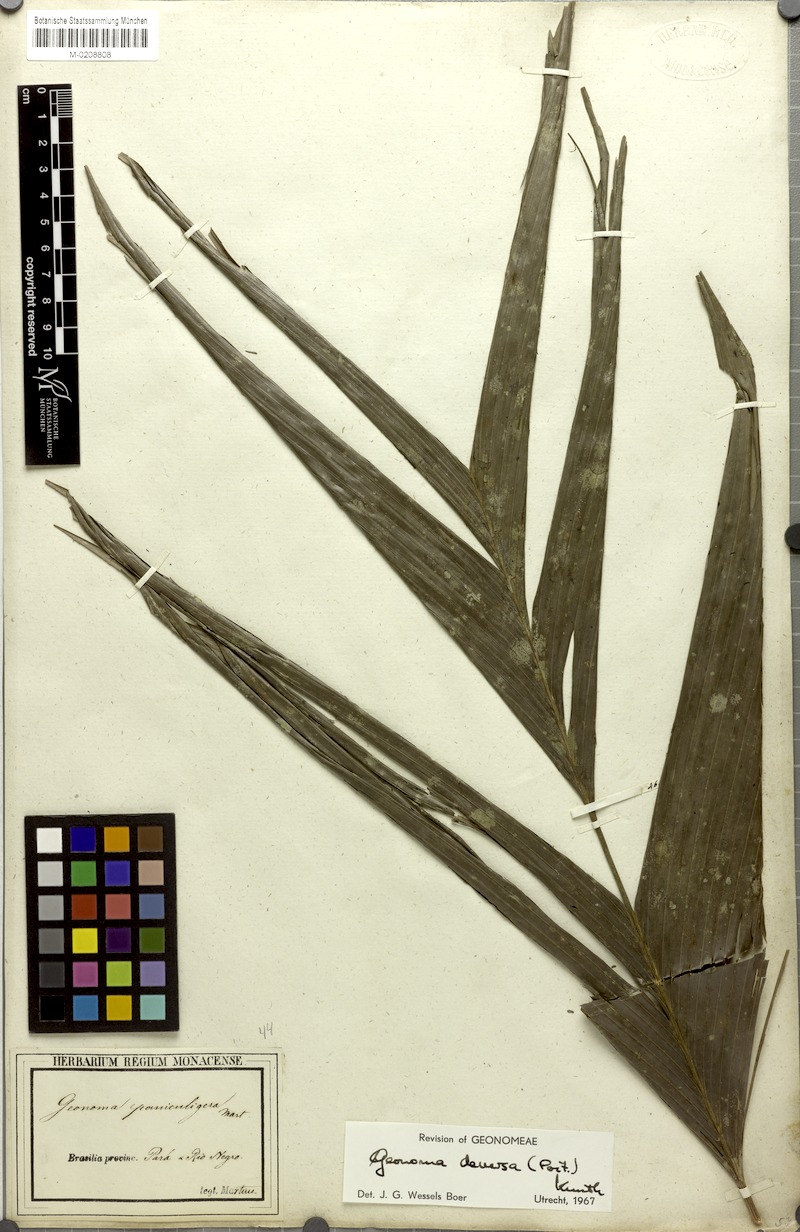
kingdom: Plantae
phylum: Tracheophyta
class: Liliopsida
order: Arecales
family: Arecaceae
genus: Geonoma
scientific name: Geonoma deversa
